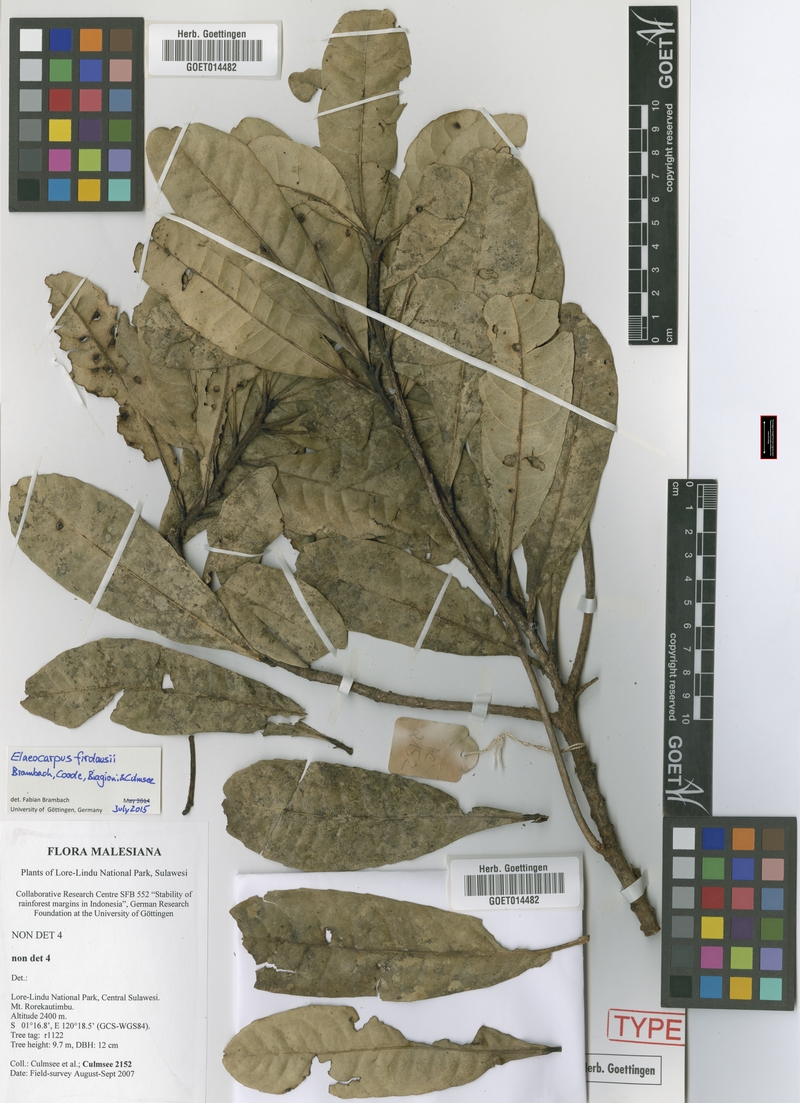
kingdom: Plantae
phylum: Tracheophyta
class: Magnoliopsida
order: Oxalidales
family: Elaeocarpaceae
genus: Elaeocarpus
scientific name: Elaeocarpus firdausii
